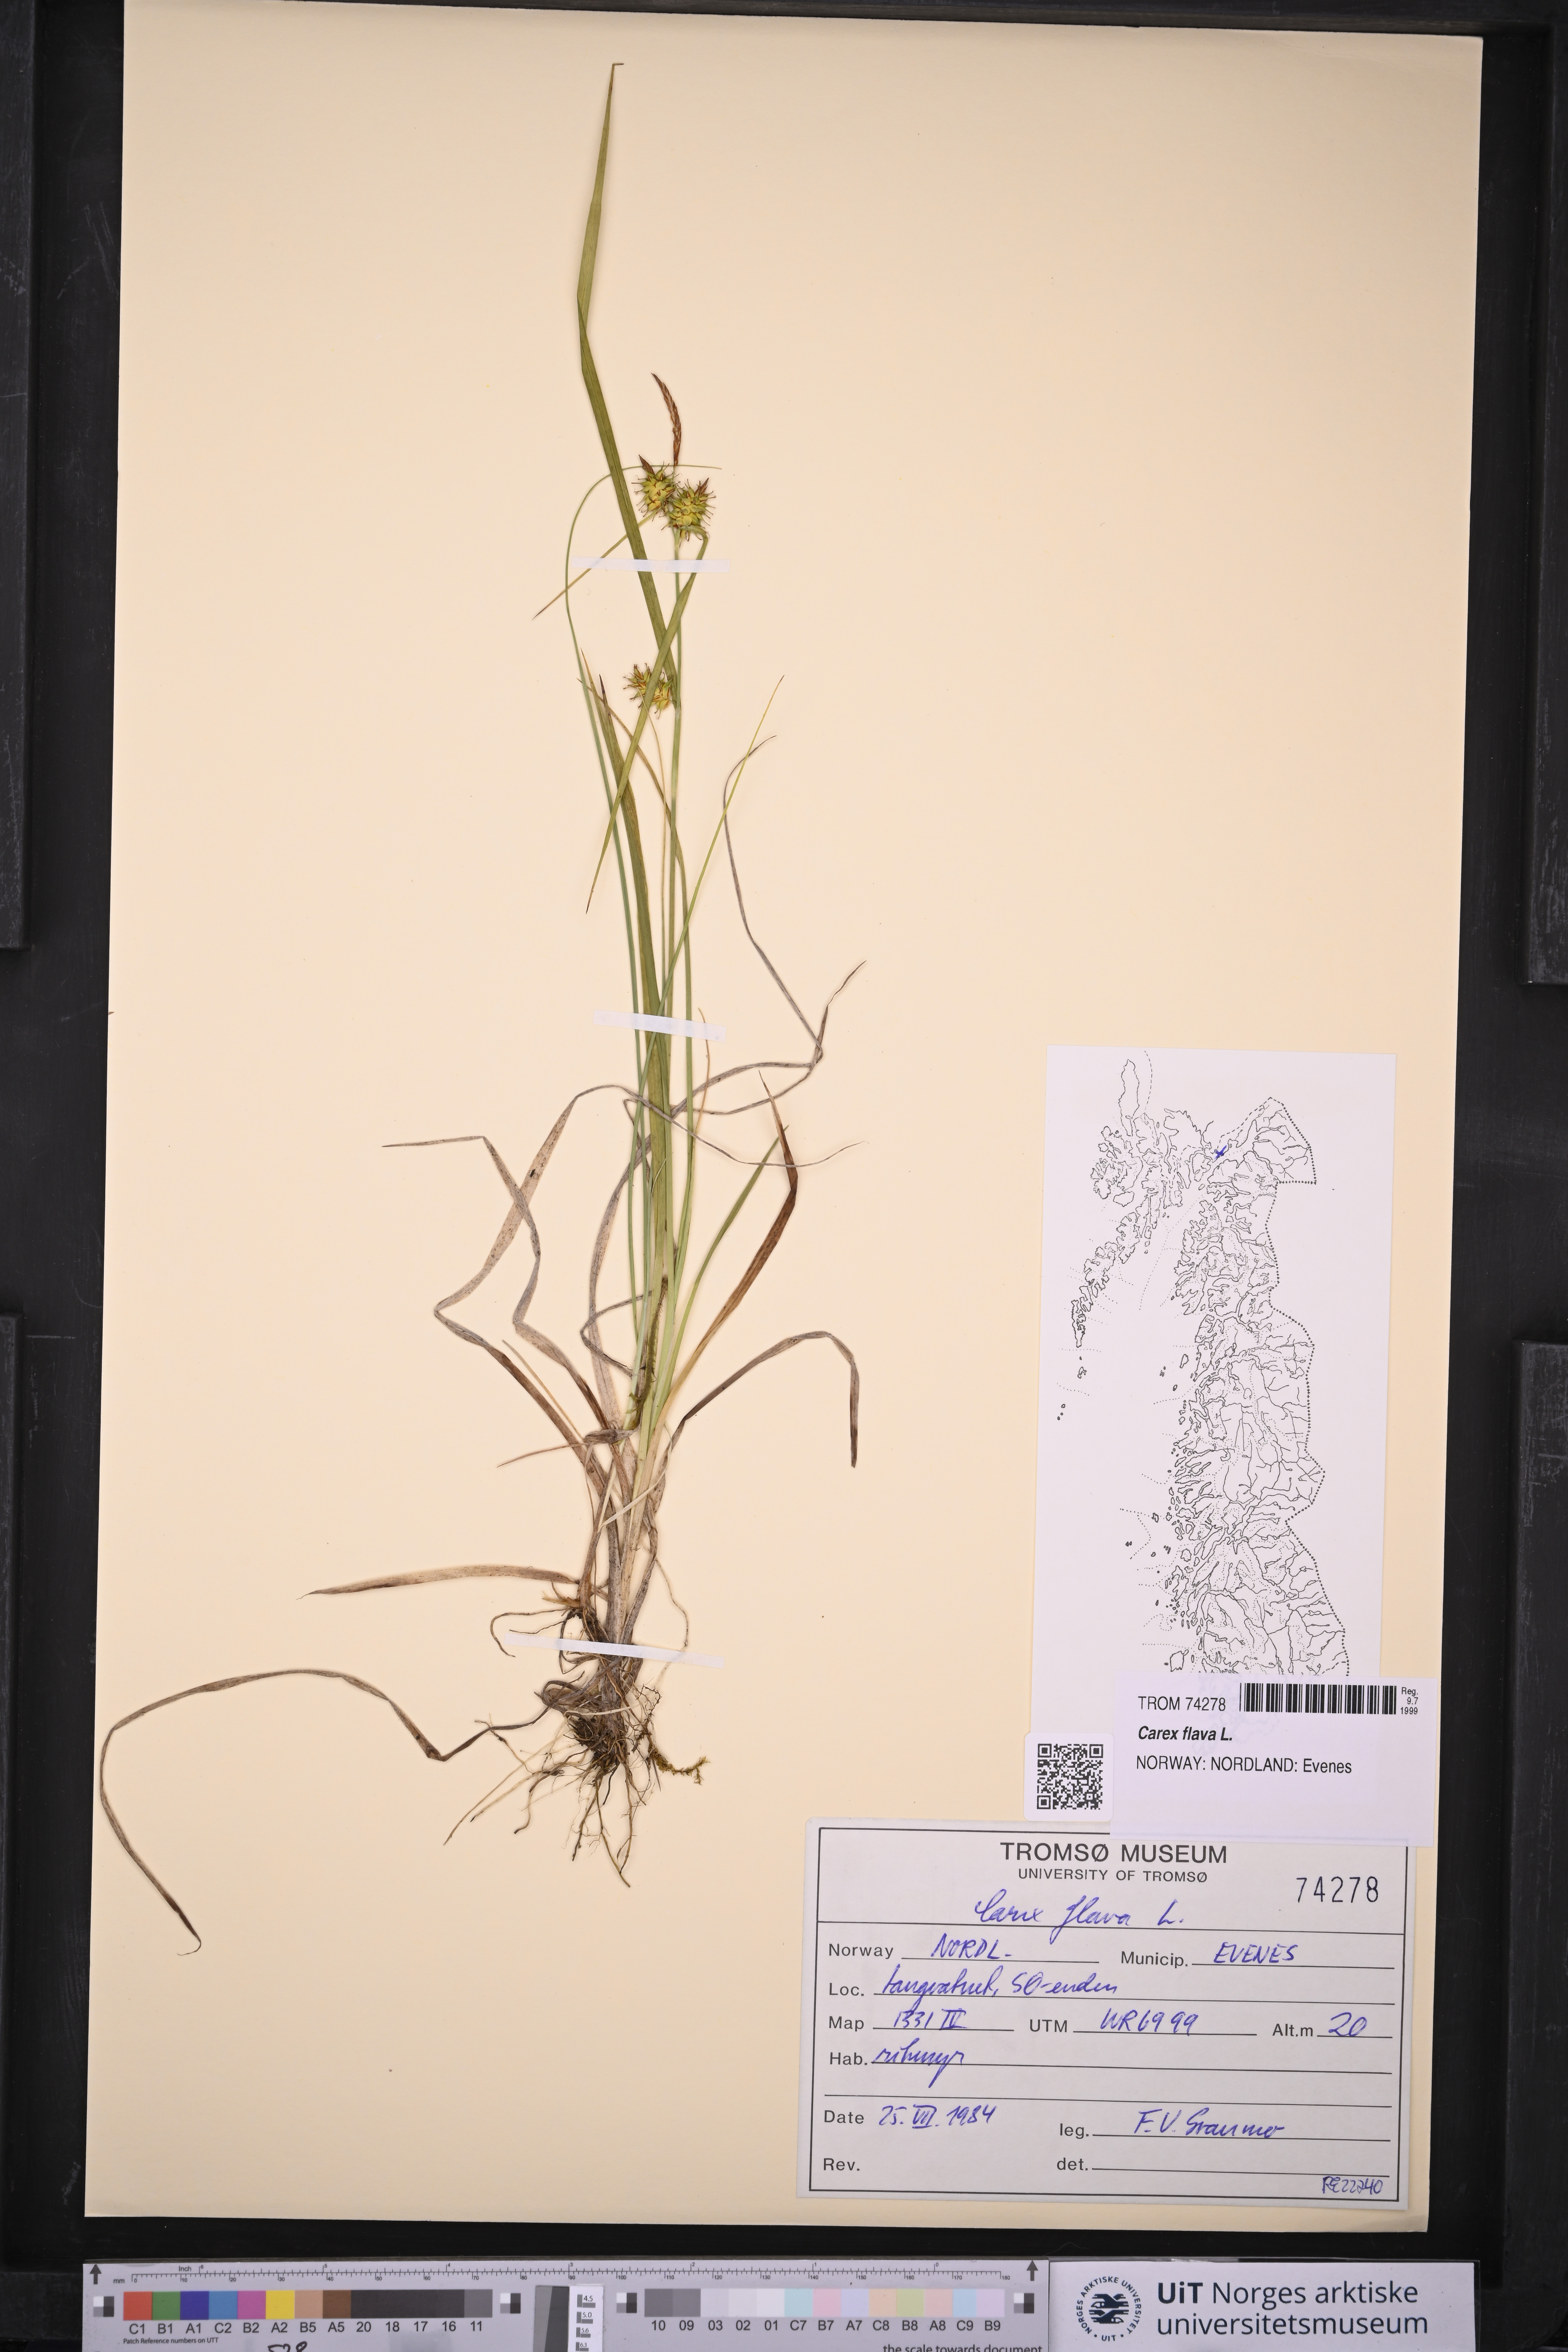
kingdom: Plantae
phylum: Tracheophyta
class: Liliopsida
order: Poales
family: Cyperaceae
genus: Carex
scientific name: Carex flava
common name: Large yellow-sedge
